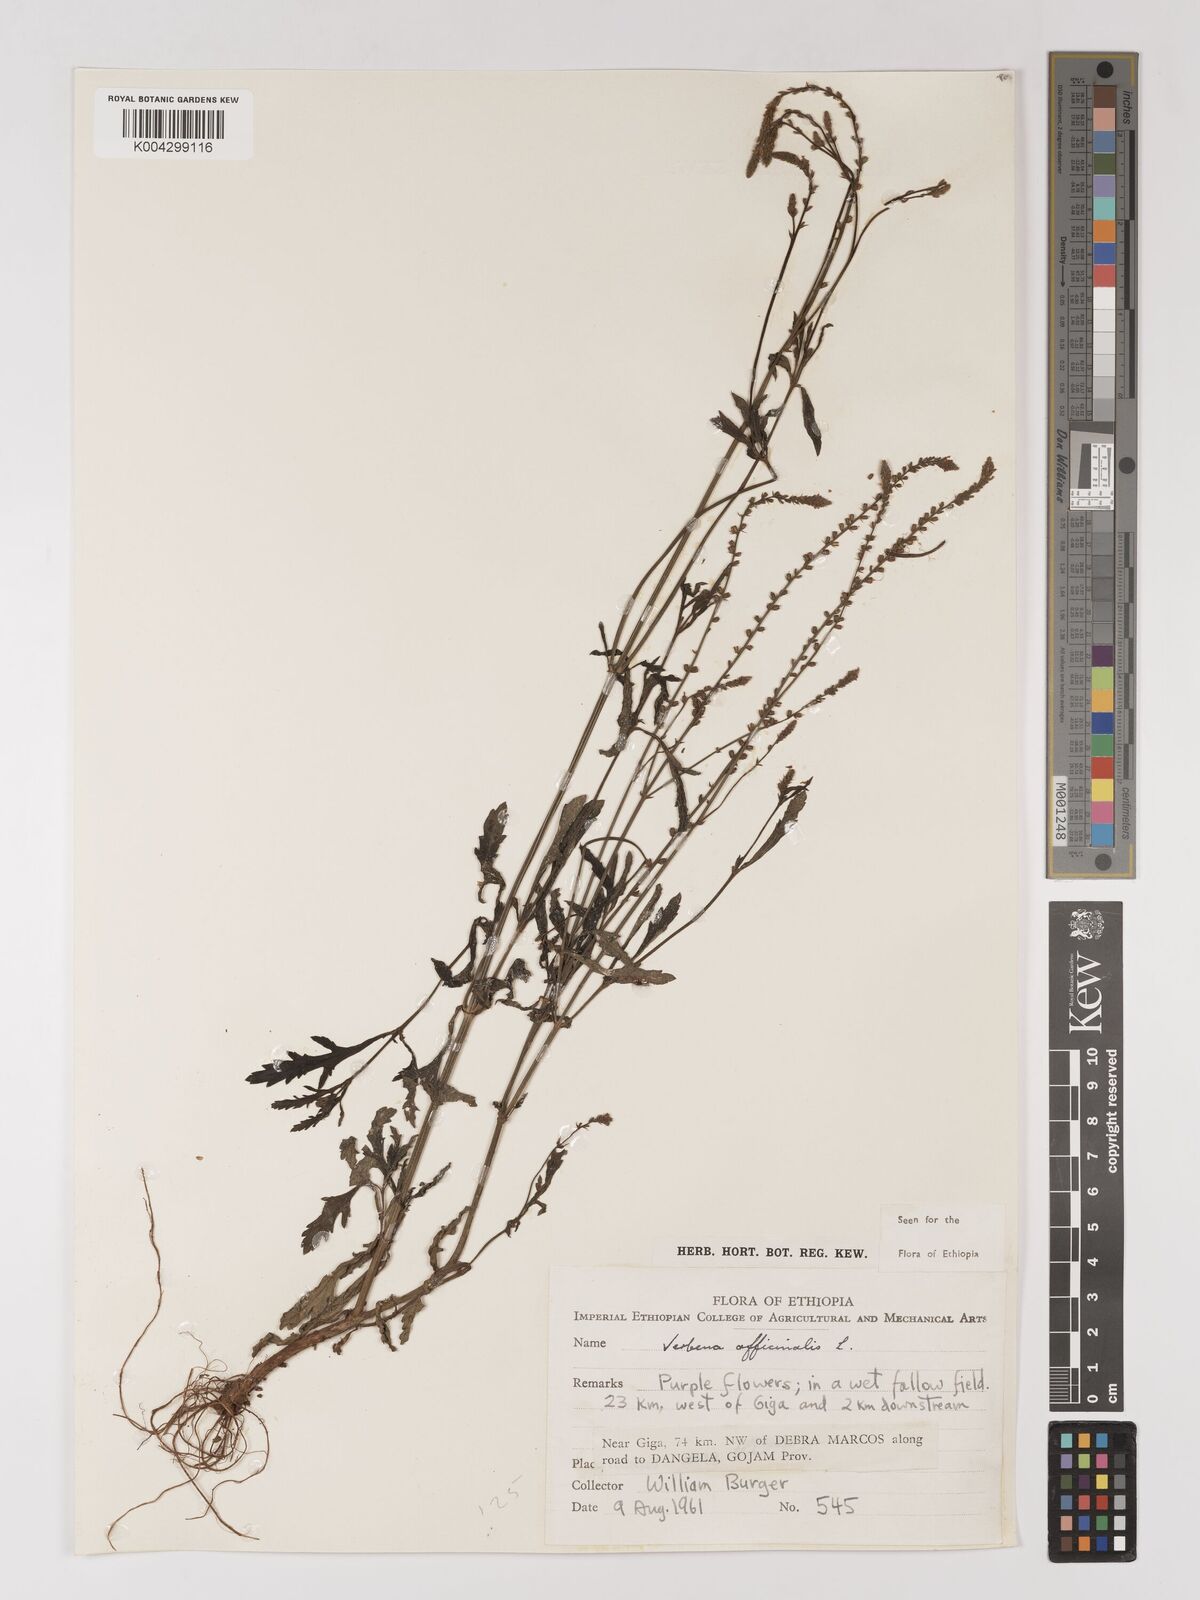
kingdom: Plantae
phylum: Tracheophyta
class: Magnoliopsida
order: Lamiales
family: Verbenaceae
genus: Verbena
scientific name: Verbena officinalis
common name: Vervain
